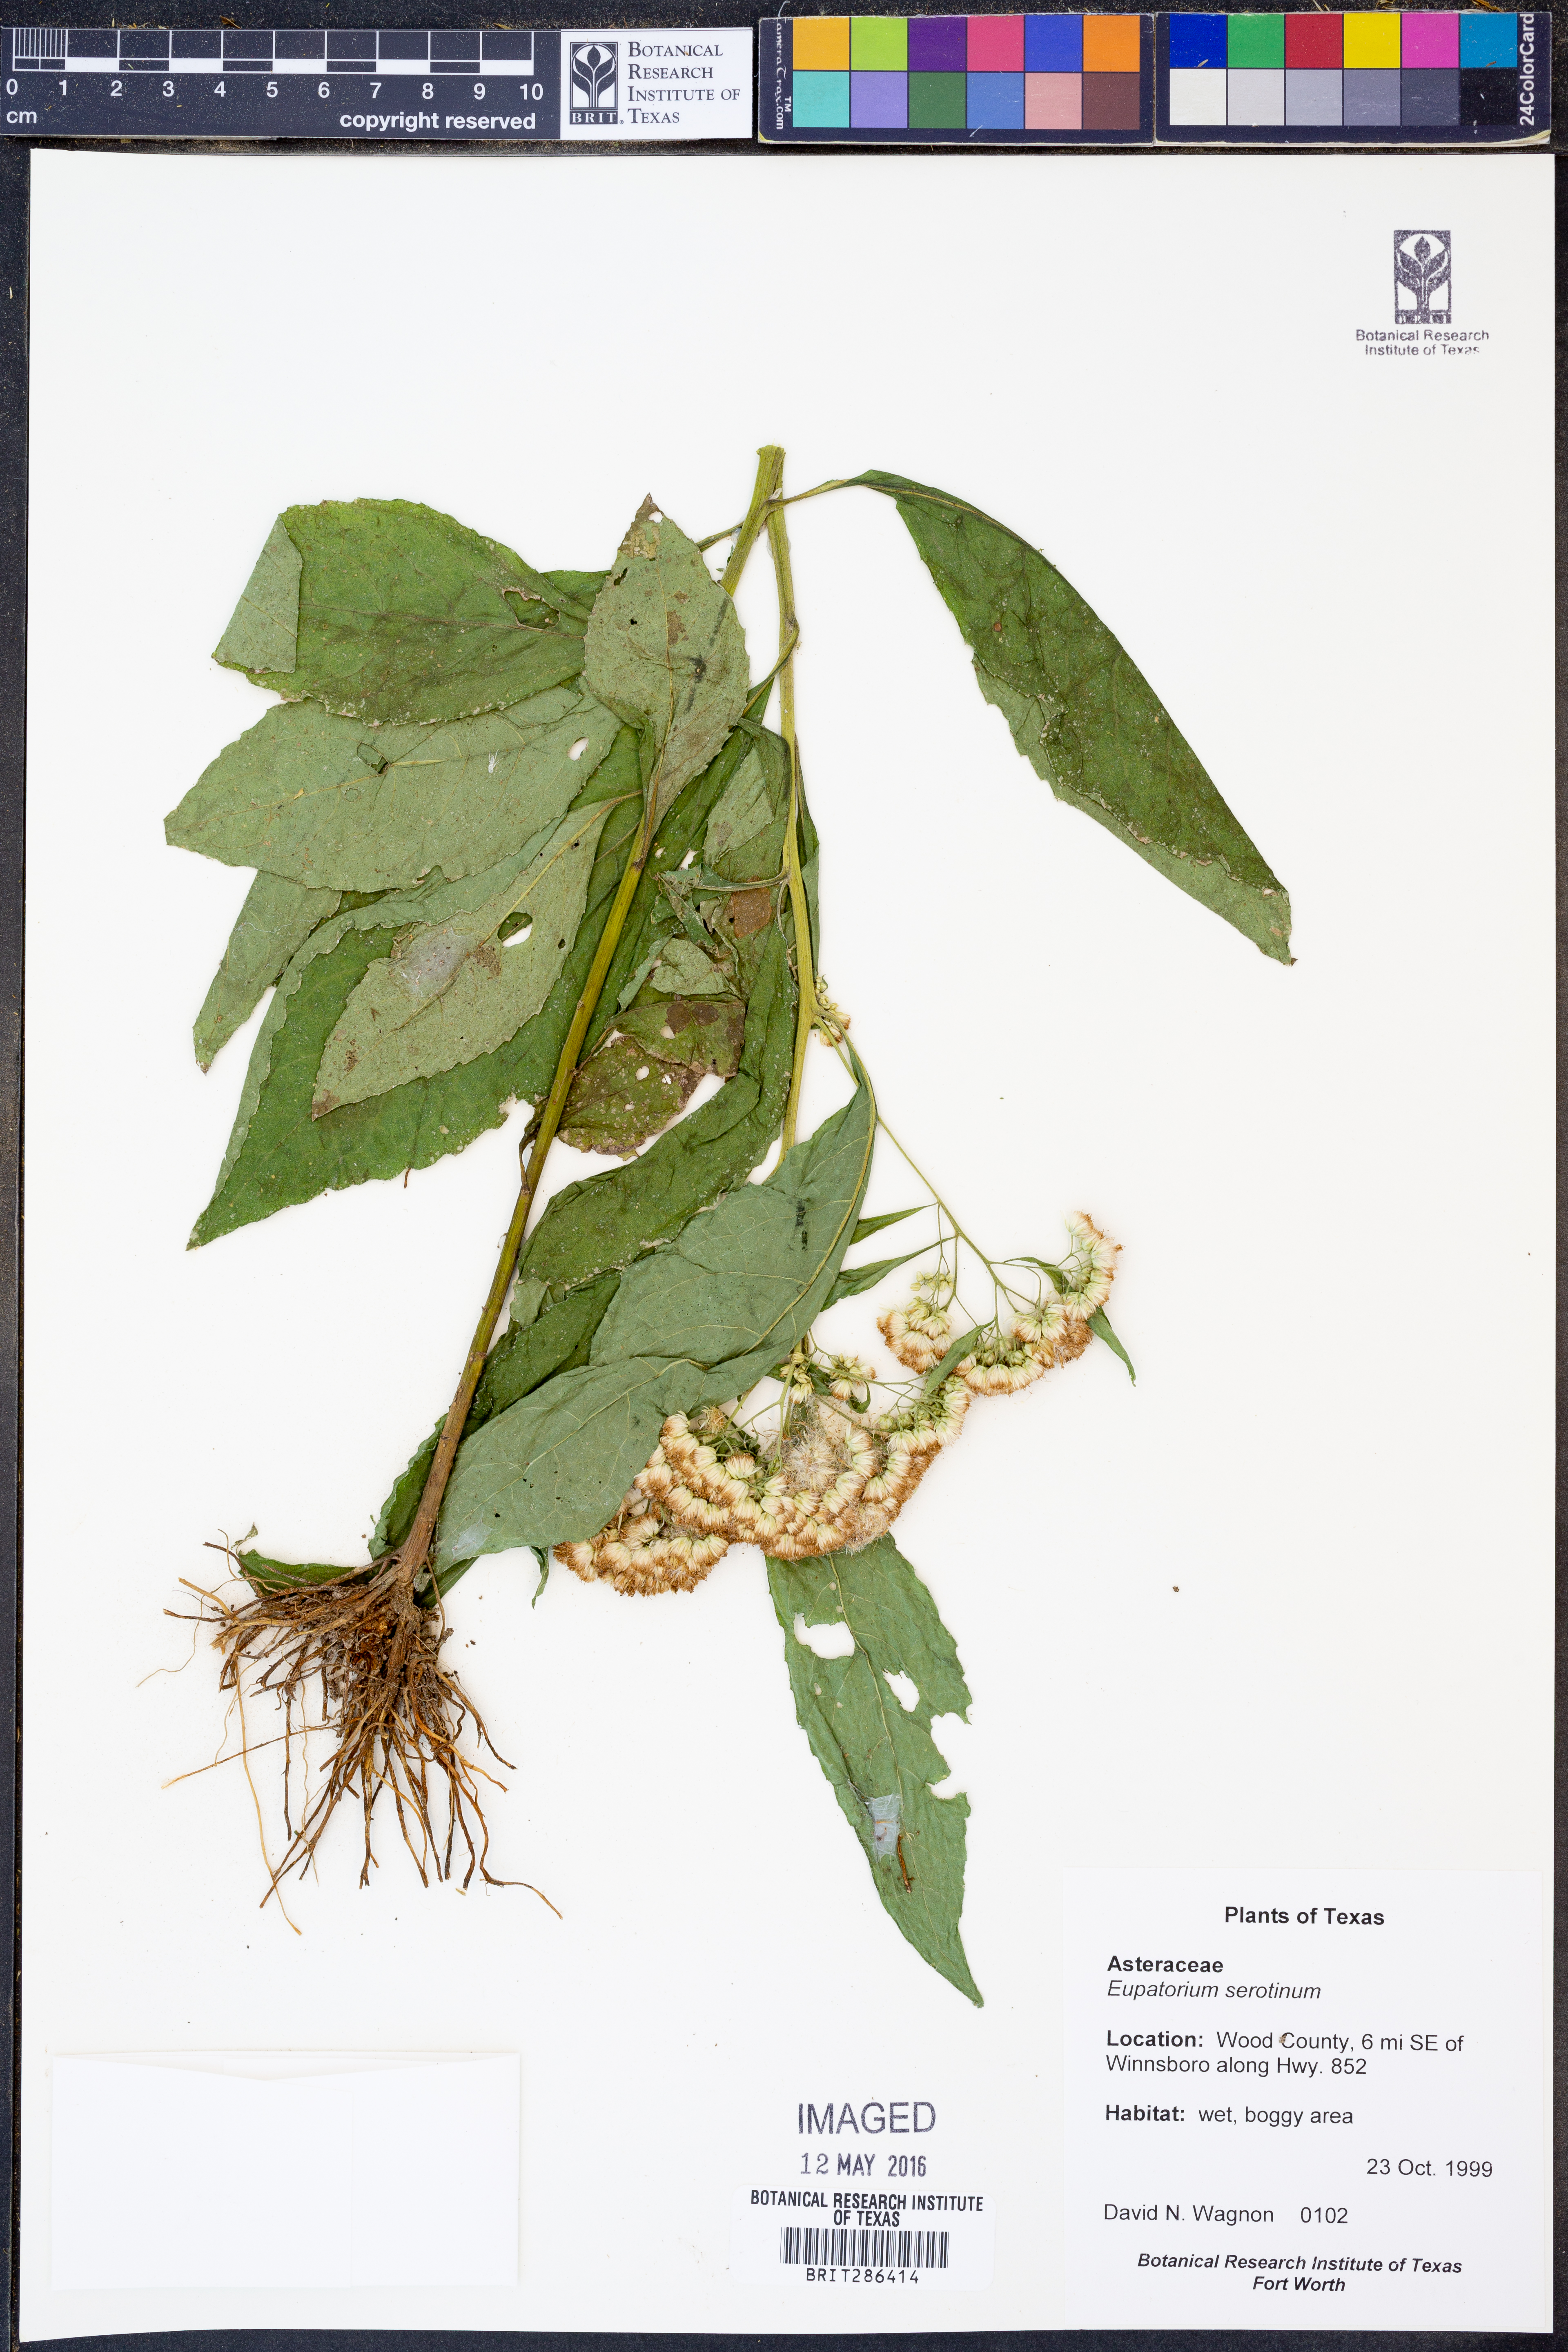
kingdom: Plantae
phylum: Tracheophyta
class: Magnoliopsida
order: Asterales
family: Asteraceae
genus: Eupatorium
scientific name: Eupatorium serotinum
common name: Late boneset
